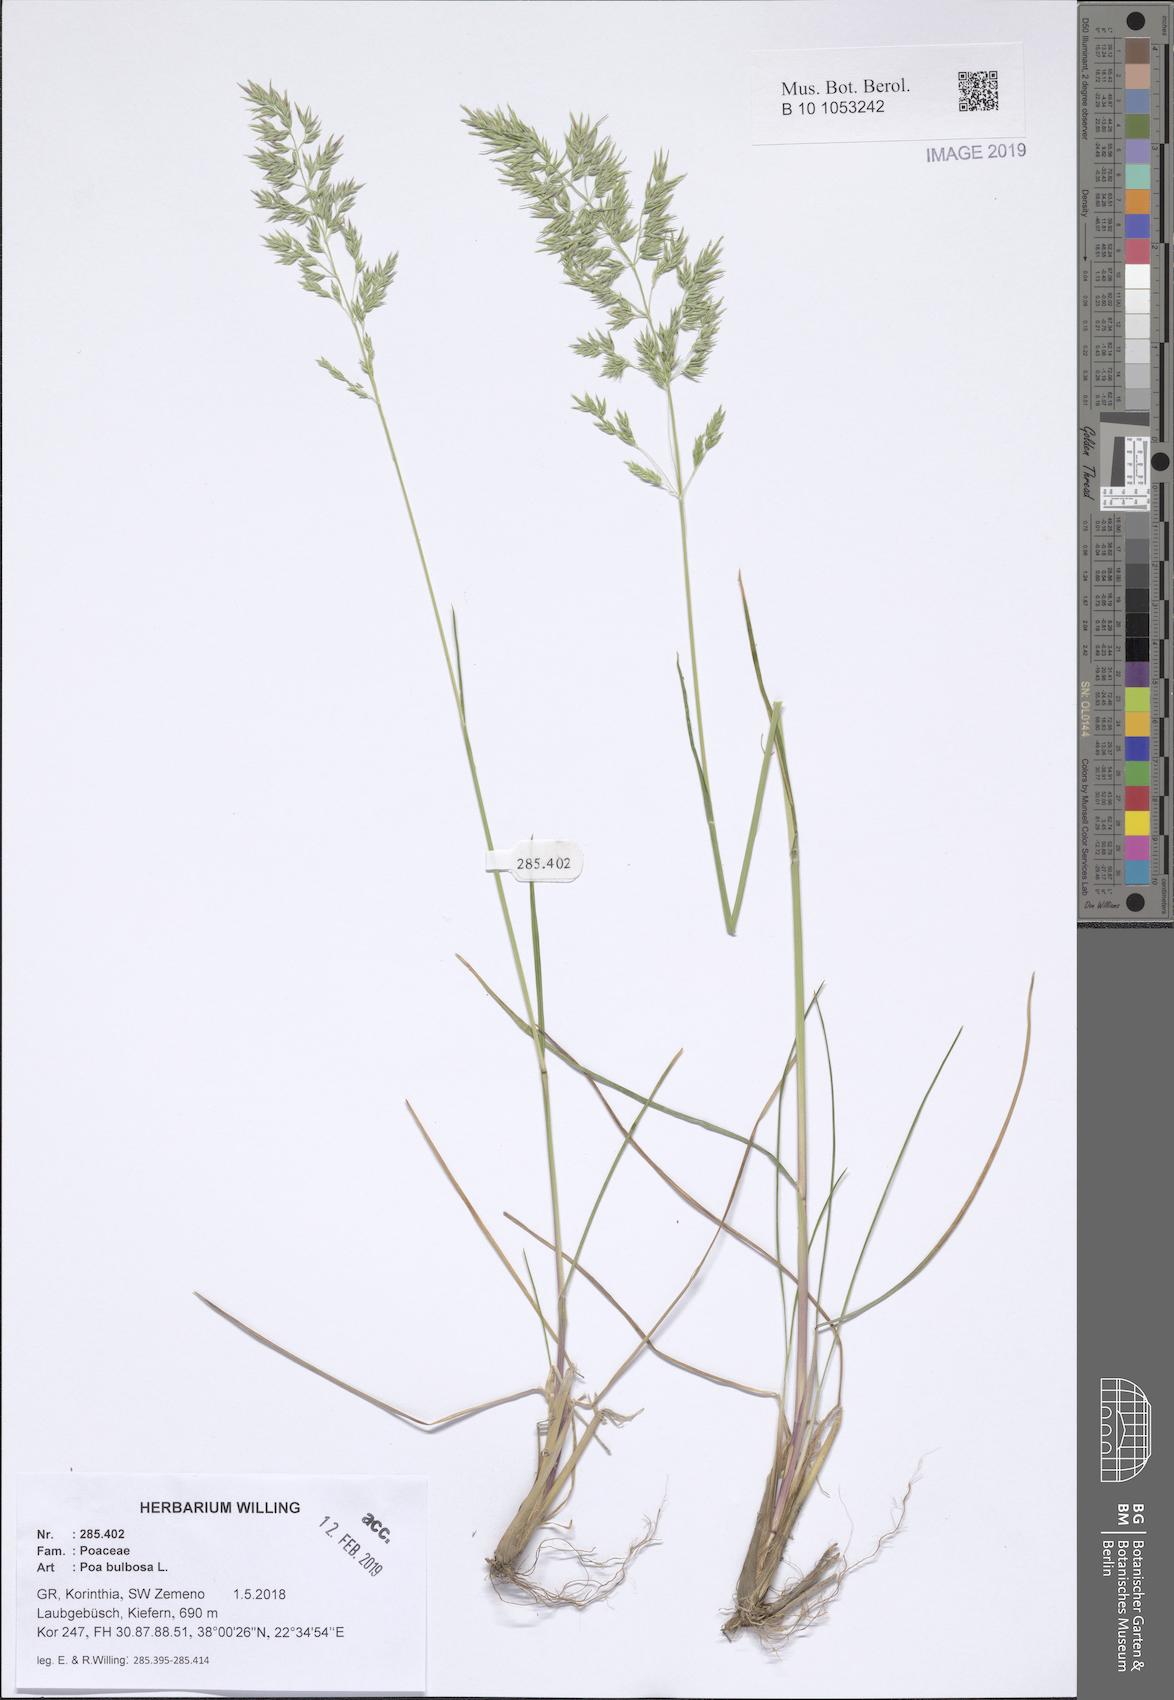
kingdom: Plantae
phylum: Tracheophyta
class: Liliopsida
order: Poales
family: Poaceae
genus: Poa
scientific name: Poa bulbosa
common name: Bulbous bluegrass
